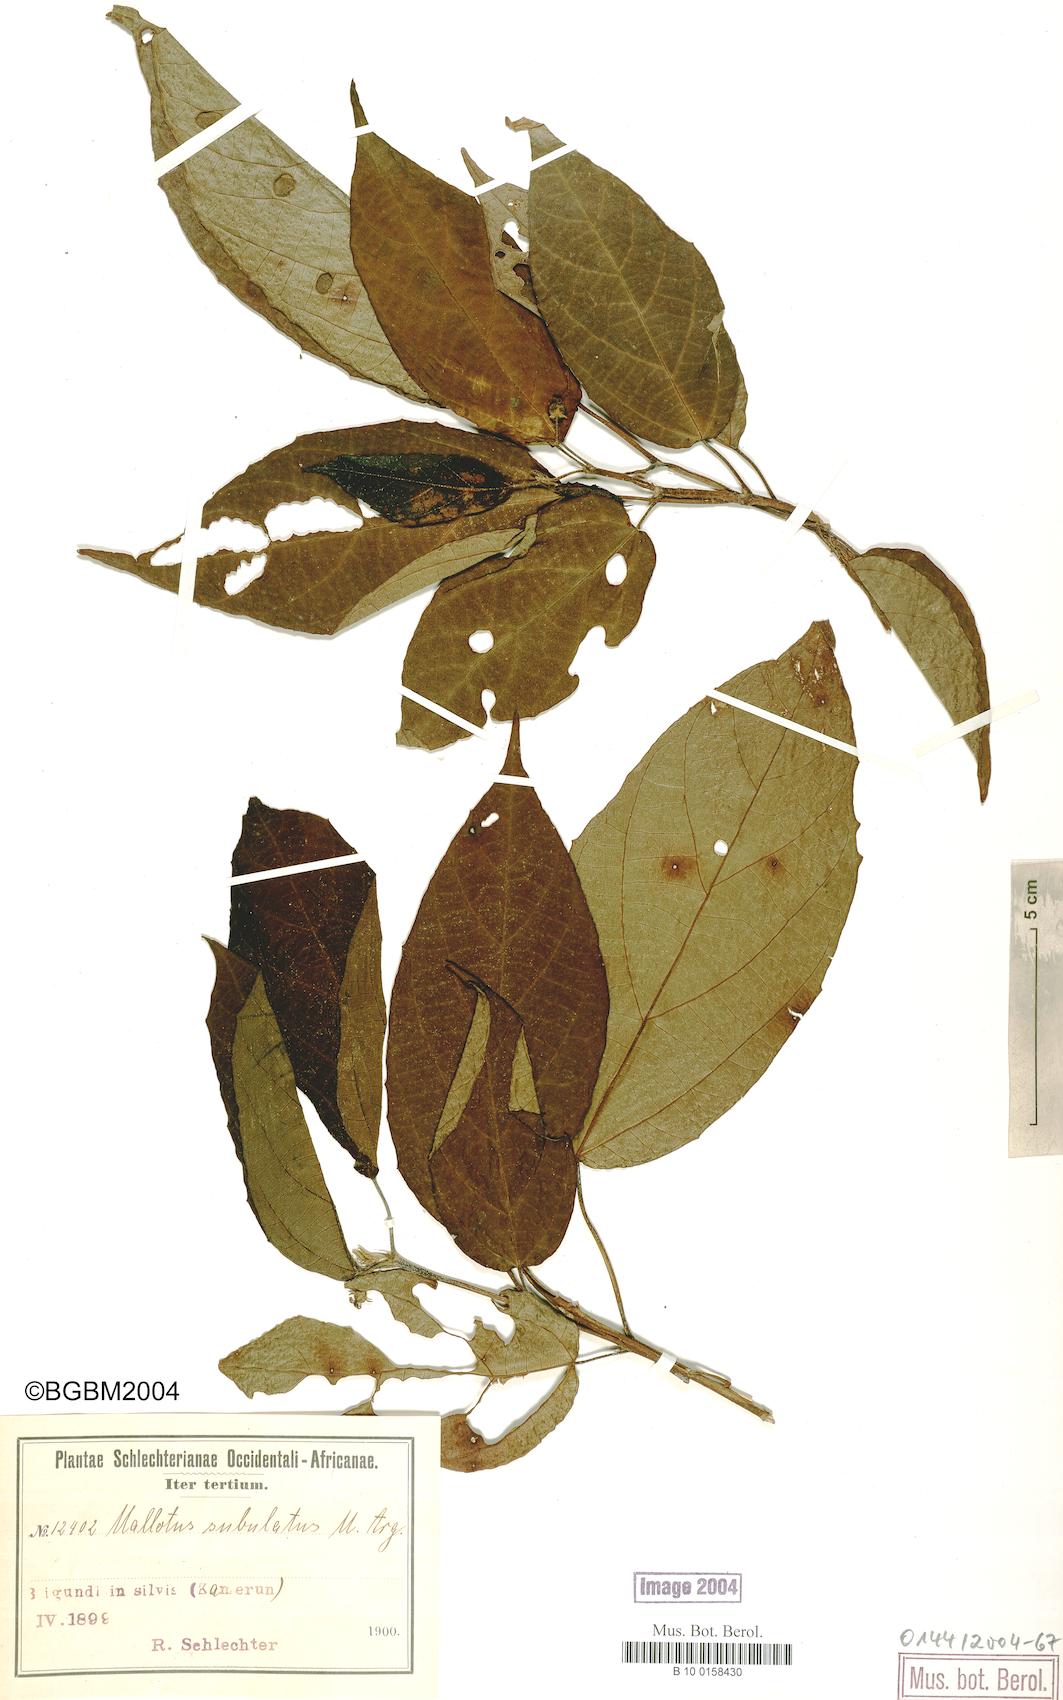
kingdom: Plantae
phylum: Tracheophyta
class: Magnoliopsida
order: Malpighiales
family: Euphorbiaceae
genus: Mallotus
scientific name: Mallotus subulatus
